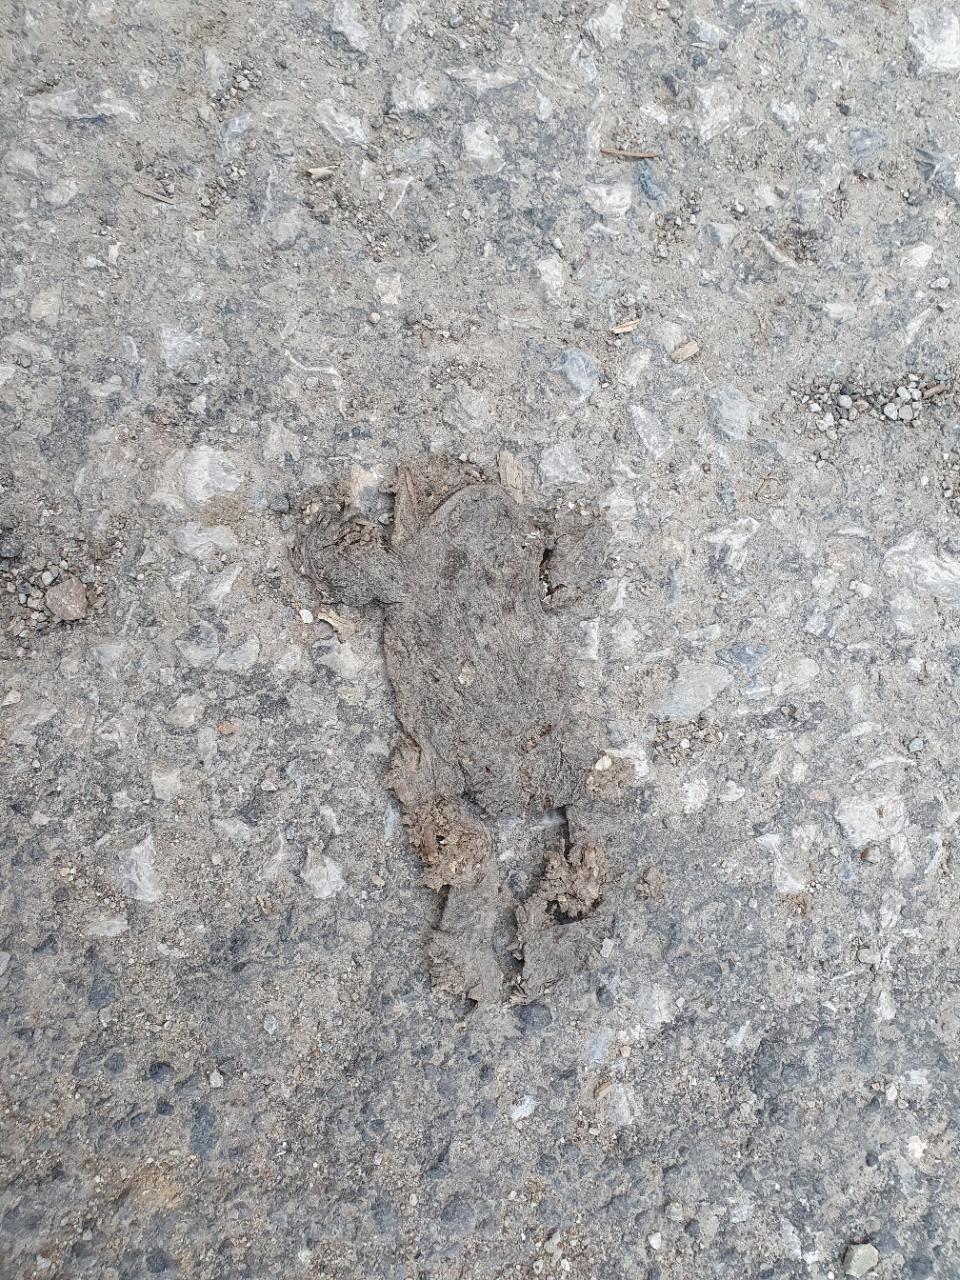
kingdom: Animalia
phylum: Chordata
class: Amphibia
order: Anura
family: Bufonidae
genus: Bufo
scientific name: Bufo bufo
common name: Common toad
